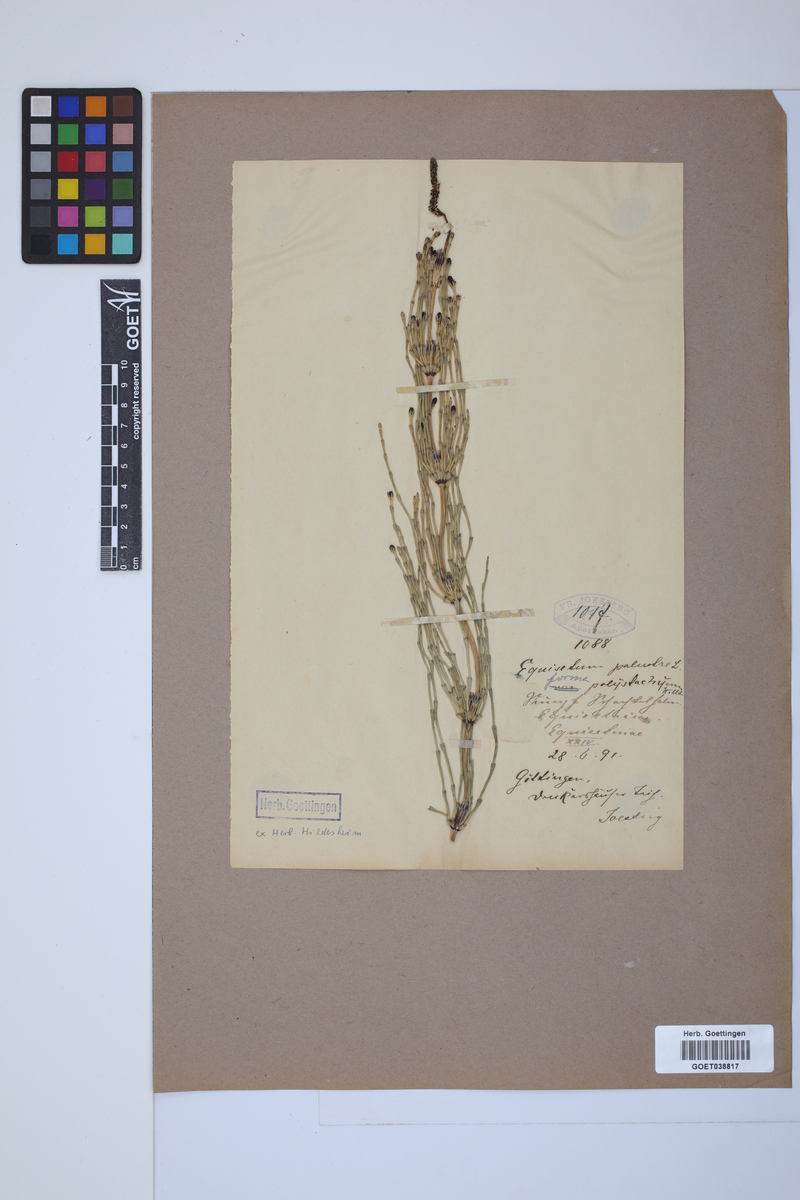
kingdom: Plantae
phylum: Tracheophyta
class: Polypodiopsida
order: Equisetales
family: Equisetaceae
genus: Equisetum
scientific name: Equisetum palustre
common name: Marsh horsetail
